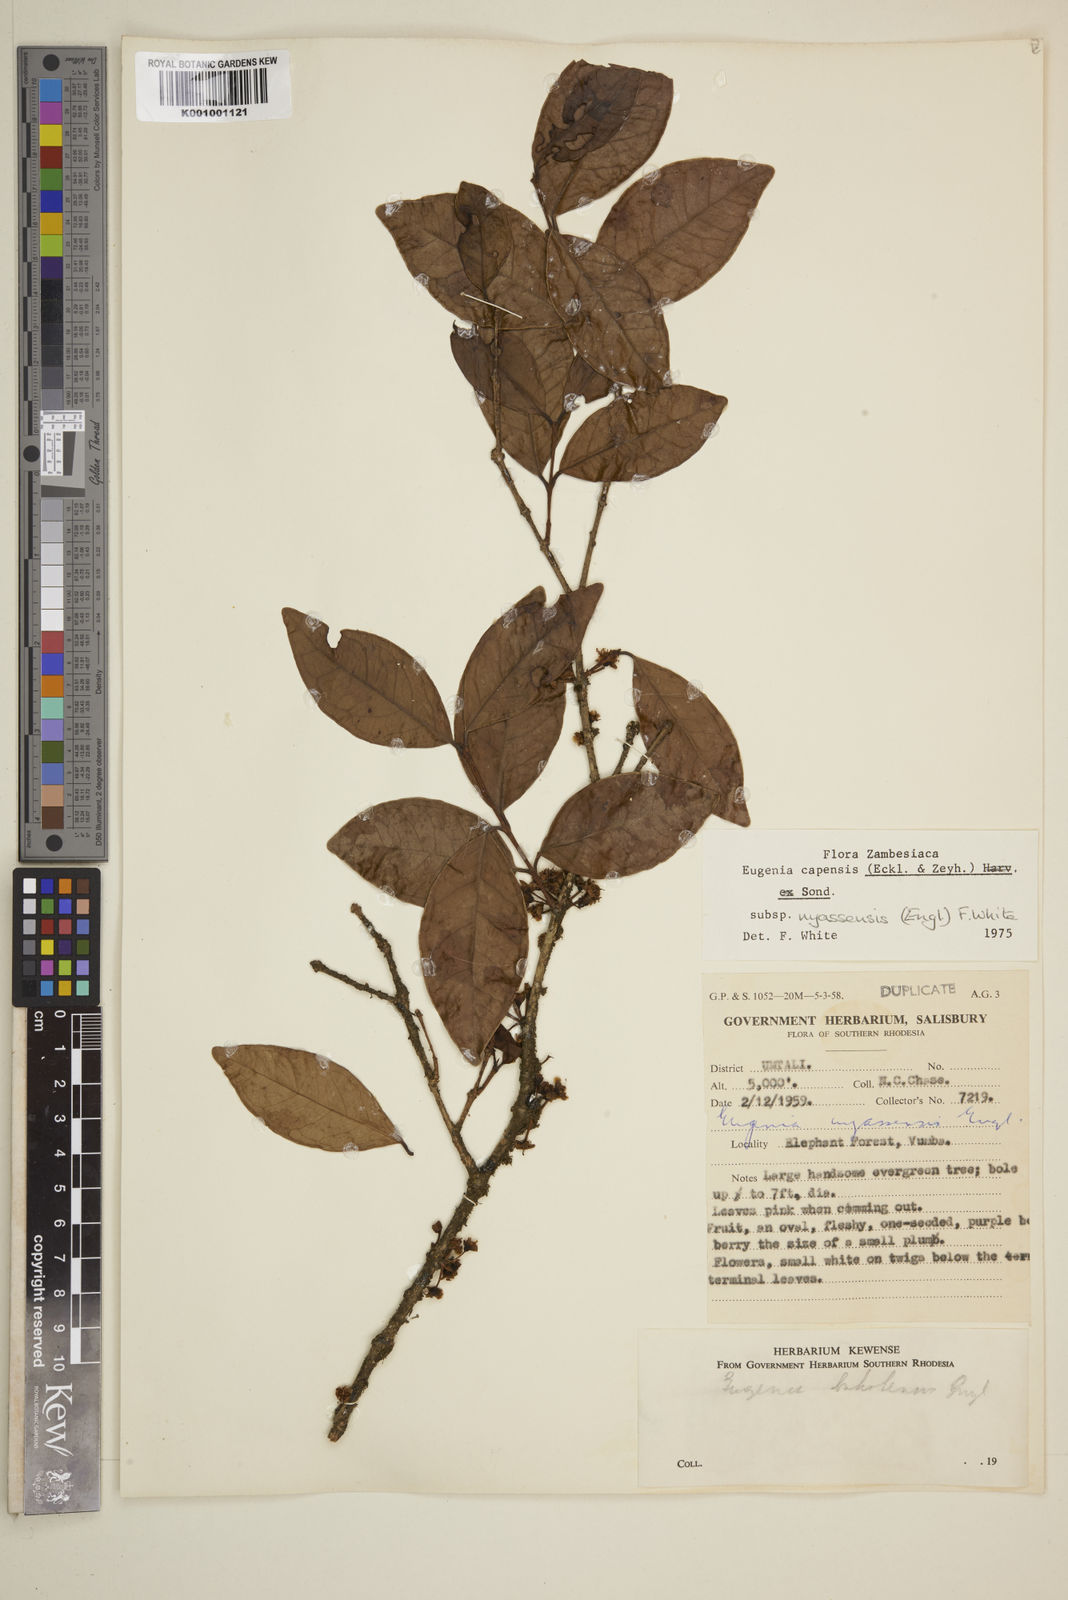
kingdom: Plantae
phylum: Tracheophyta
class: Magnoliopsida
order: Myrtales
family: Myrtaceae
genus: Eugenia
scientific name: Eugenia capensis
